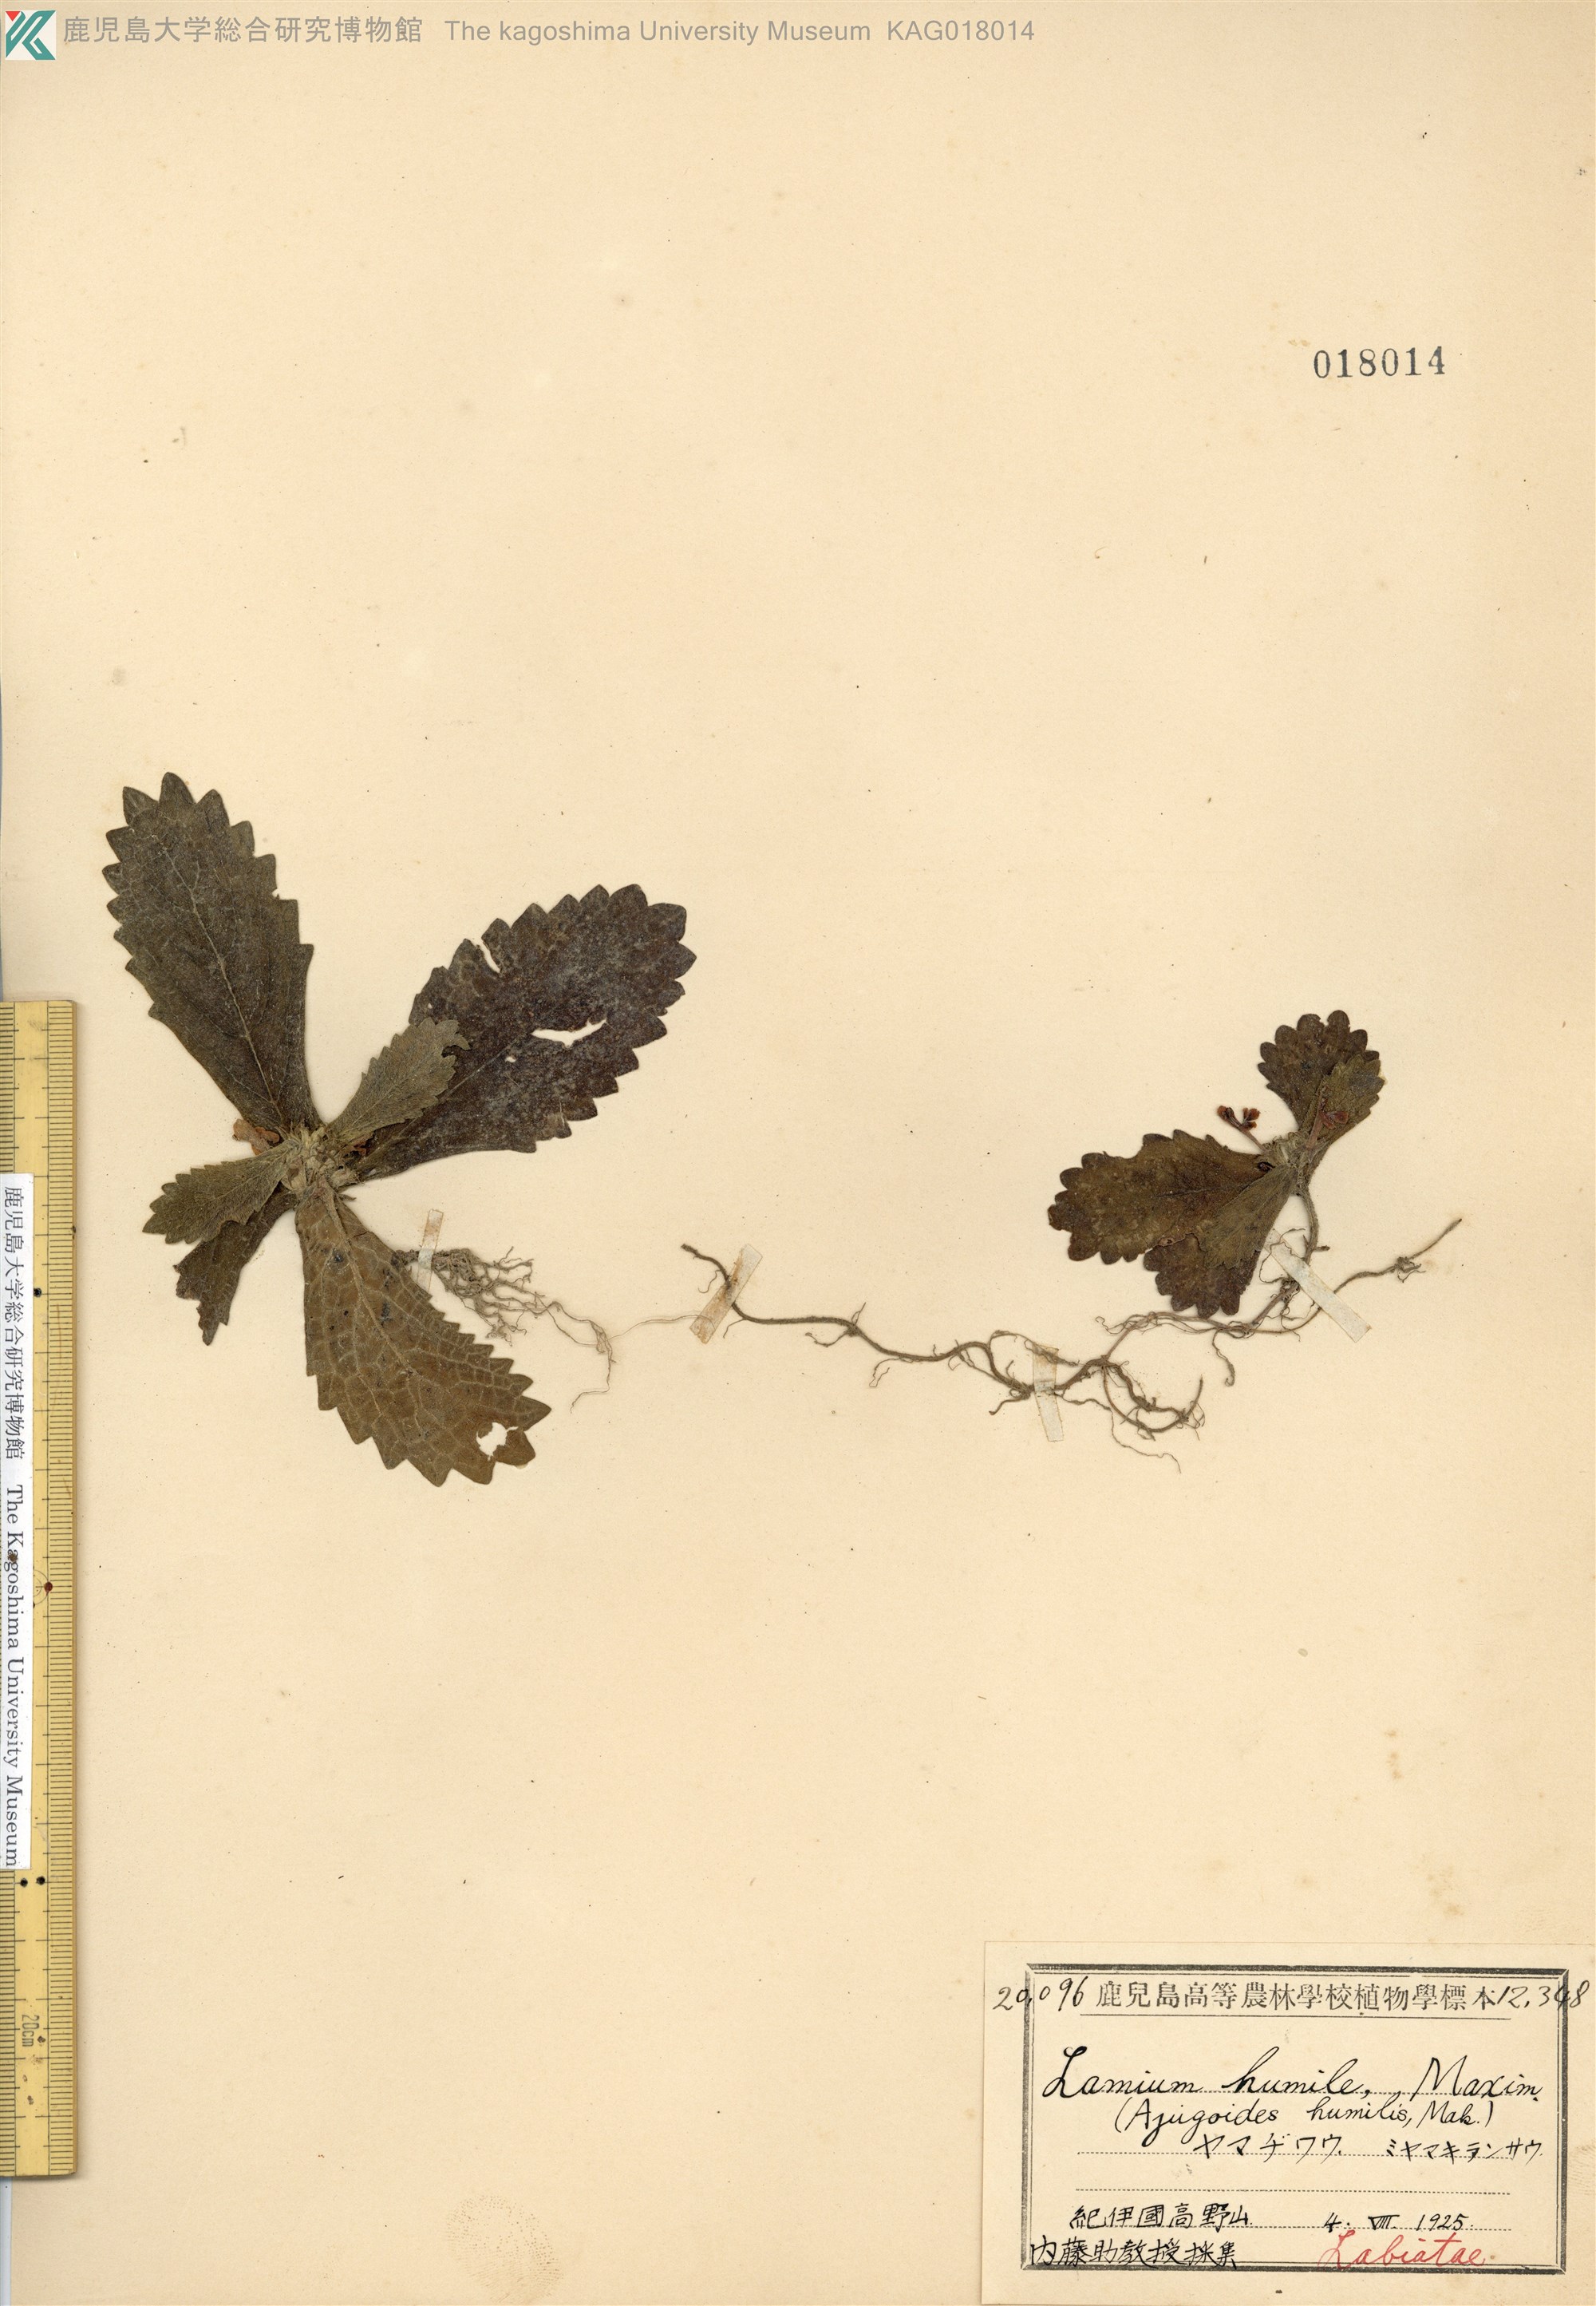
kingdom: Plantae
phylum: Tracheophyta
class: Magnoliopsida
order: Lamiales
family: Lamiaceae
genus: Ajugoides
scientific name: Ajugoides humilis
